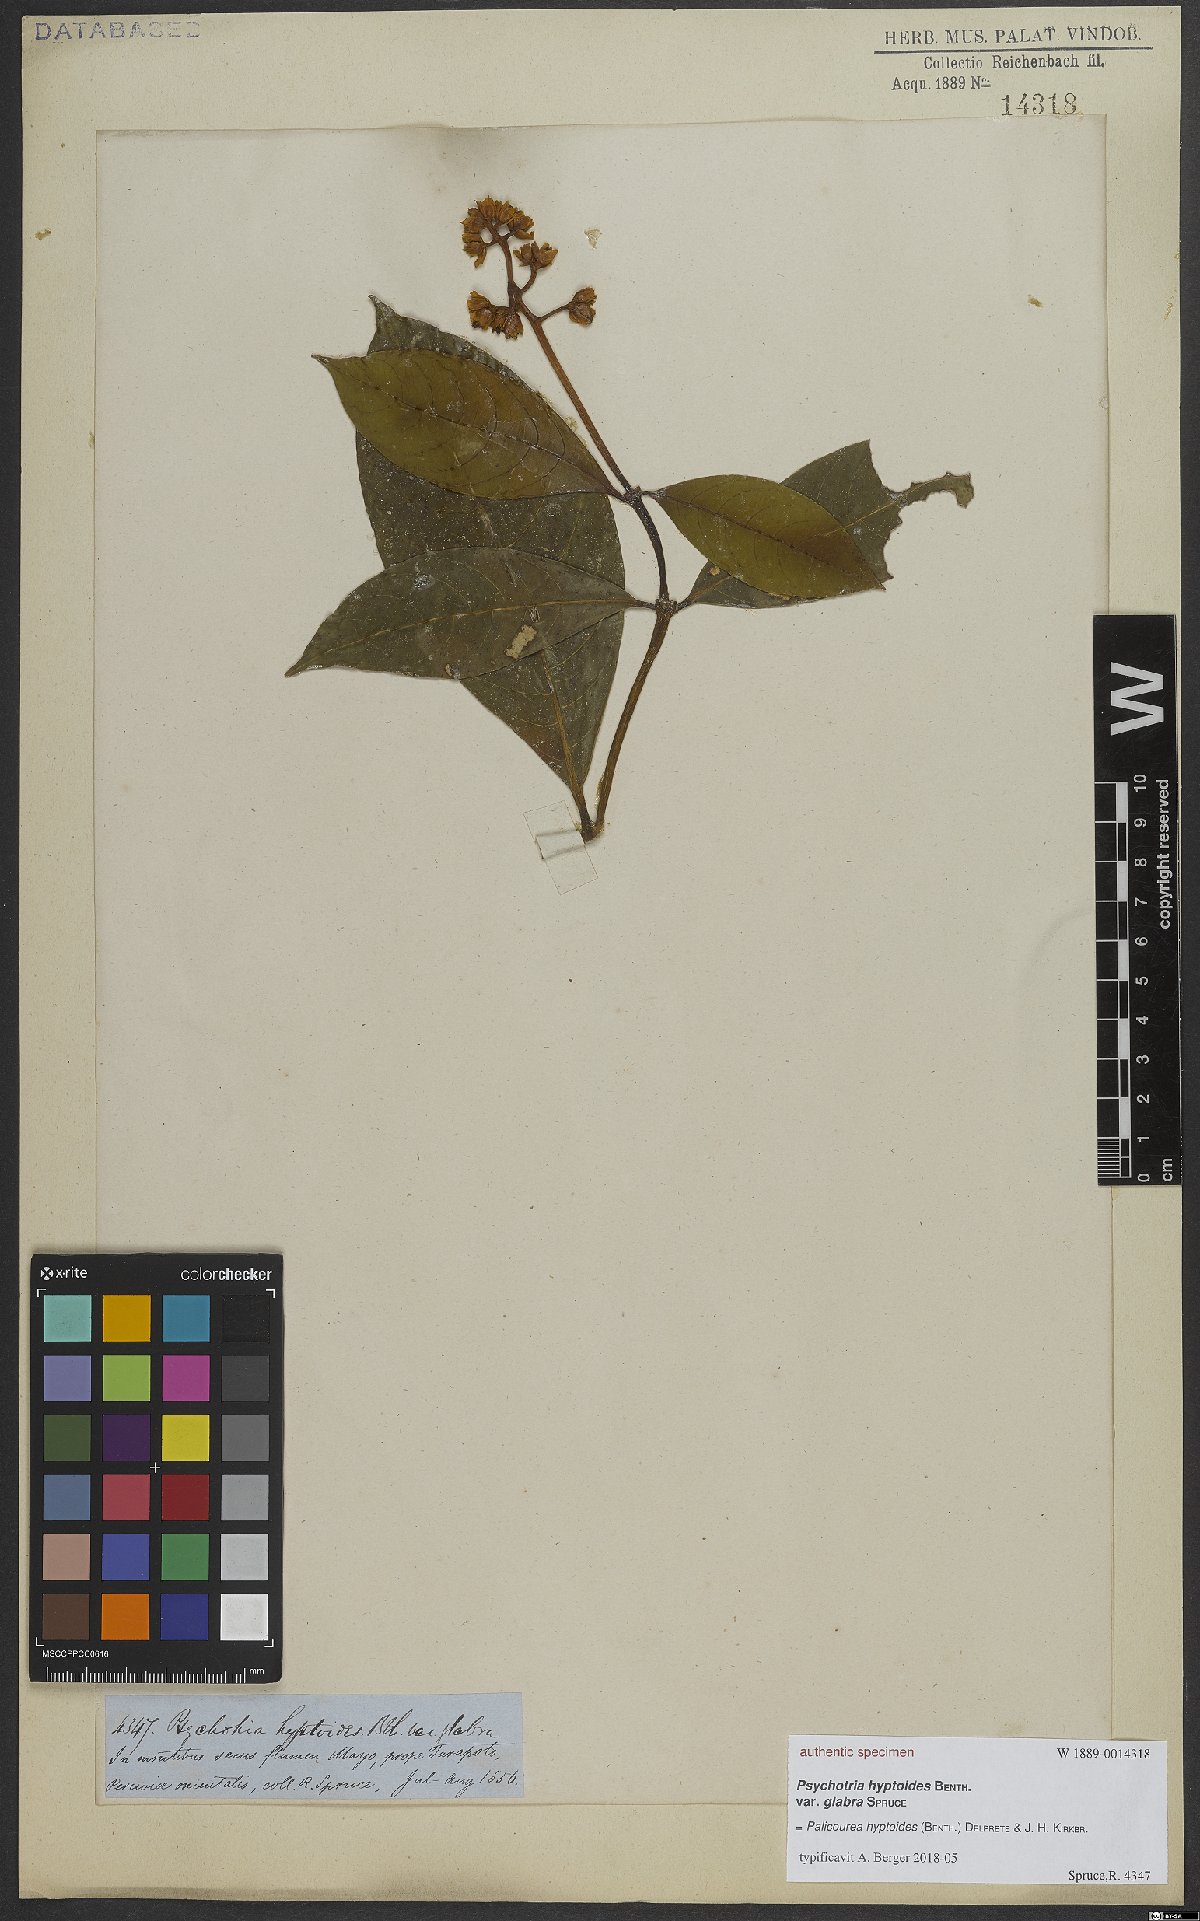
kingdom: Plantae
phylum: Tracheophyta
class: Magnoliopsida
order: Gentianales
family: Rubiaceae
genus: Palicourea
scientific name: Palicourea hyptoides
